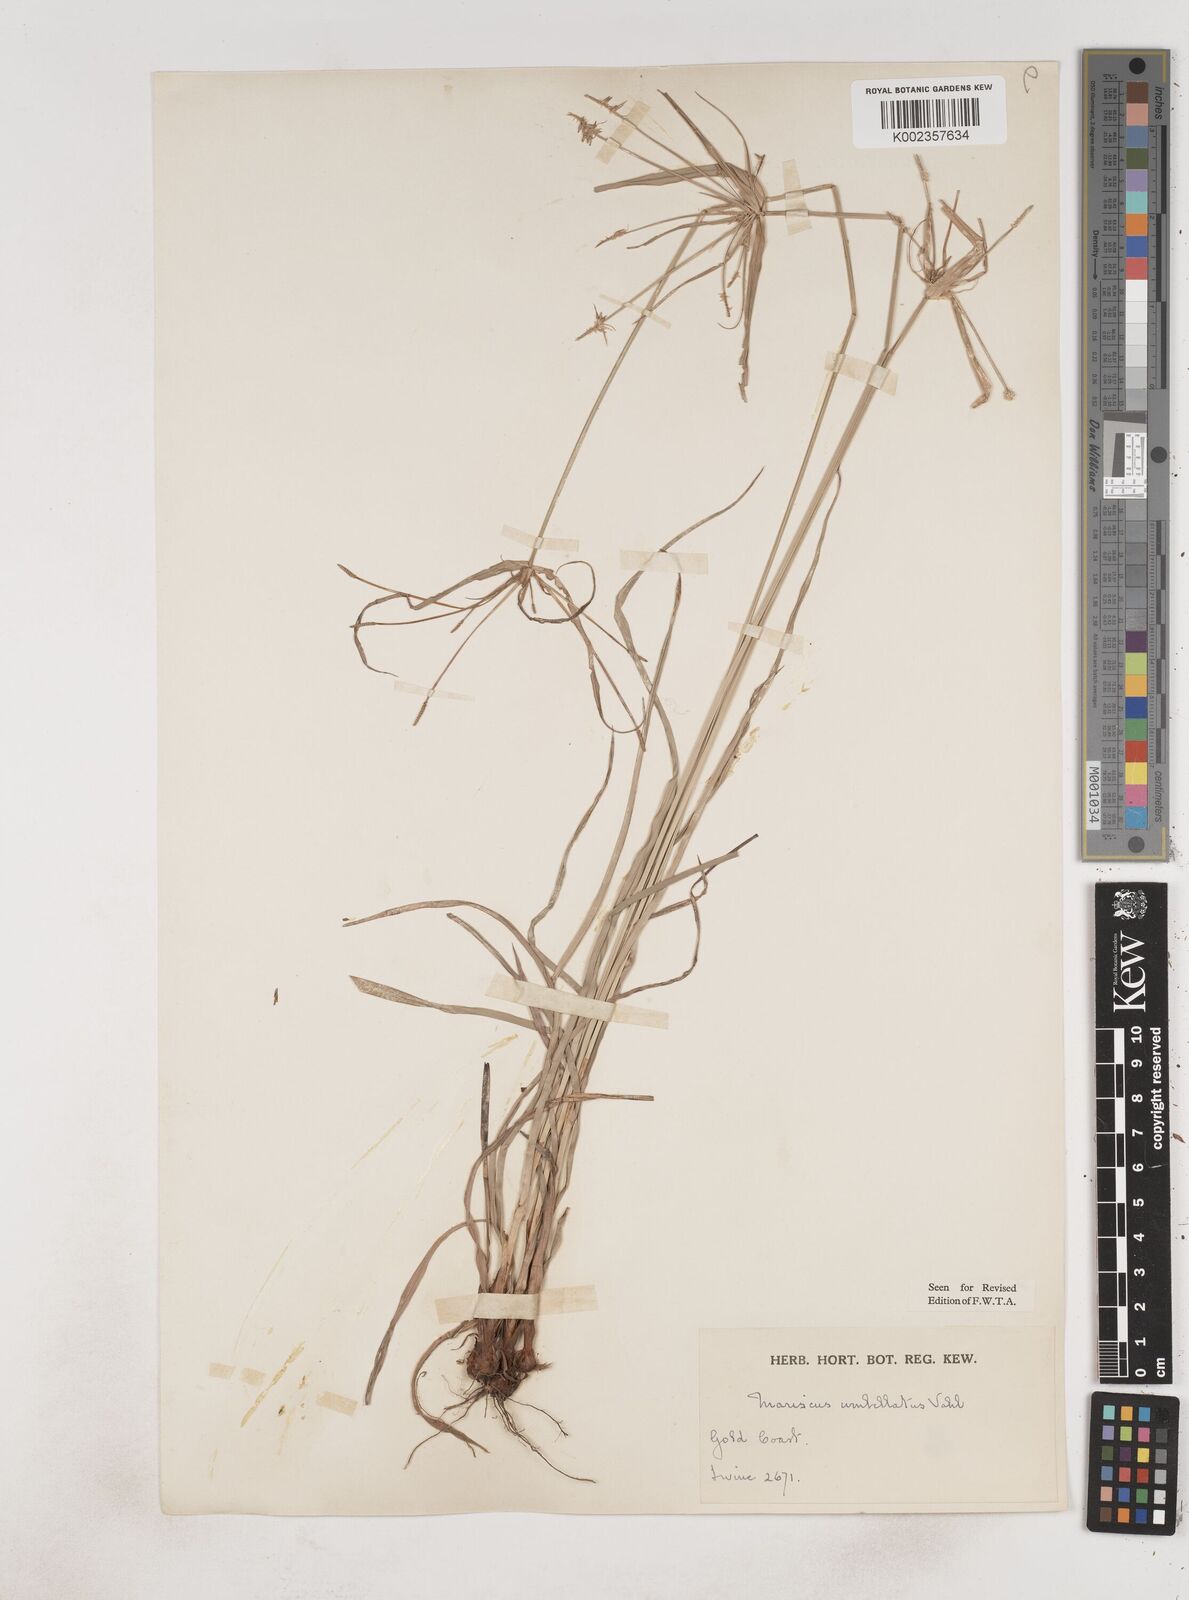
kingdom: Plantae
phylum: Tracheophyta
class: Liliopsida
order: Poales
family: Cyperaceae
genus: Cyperus
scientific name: Cyperus cyperoides
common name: Pacific island flat sedge
